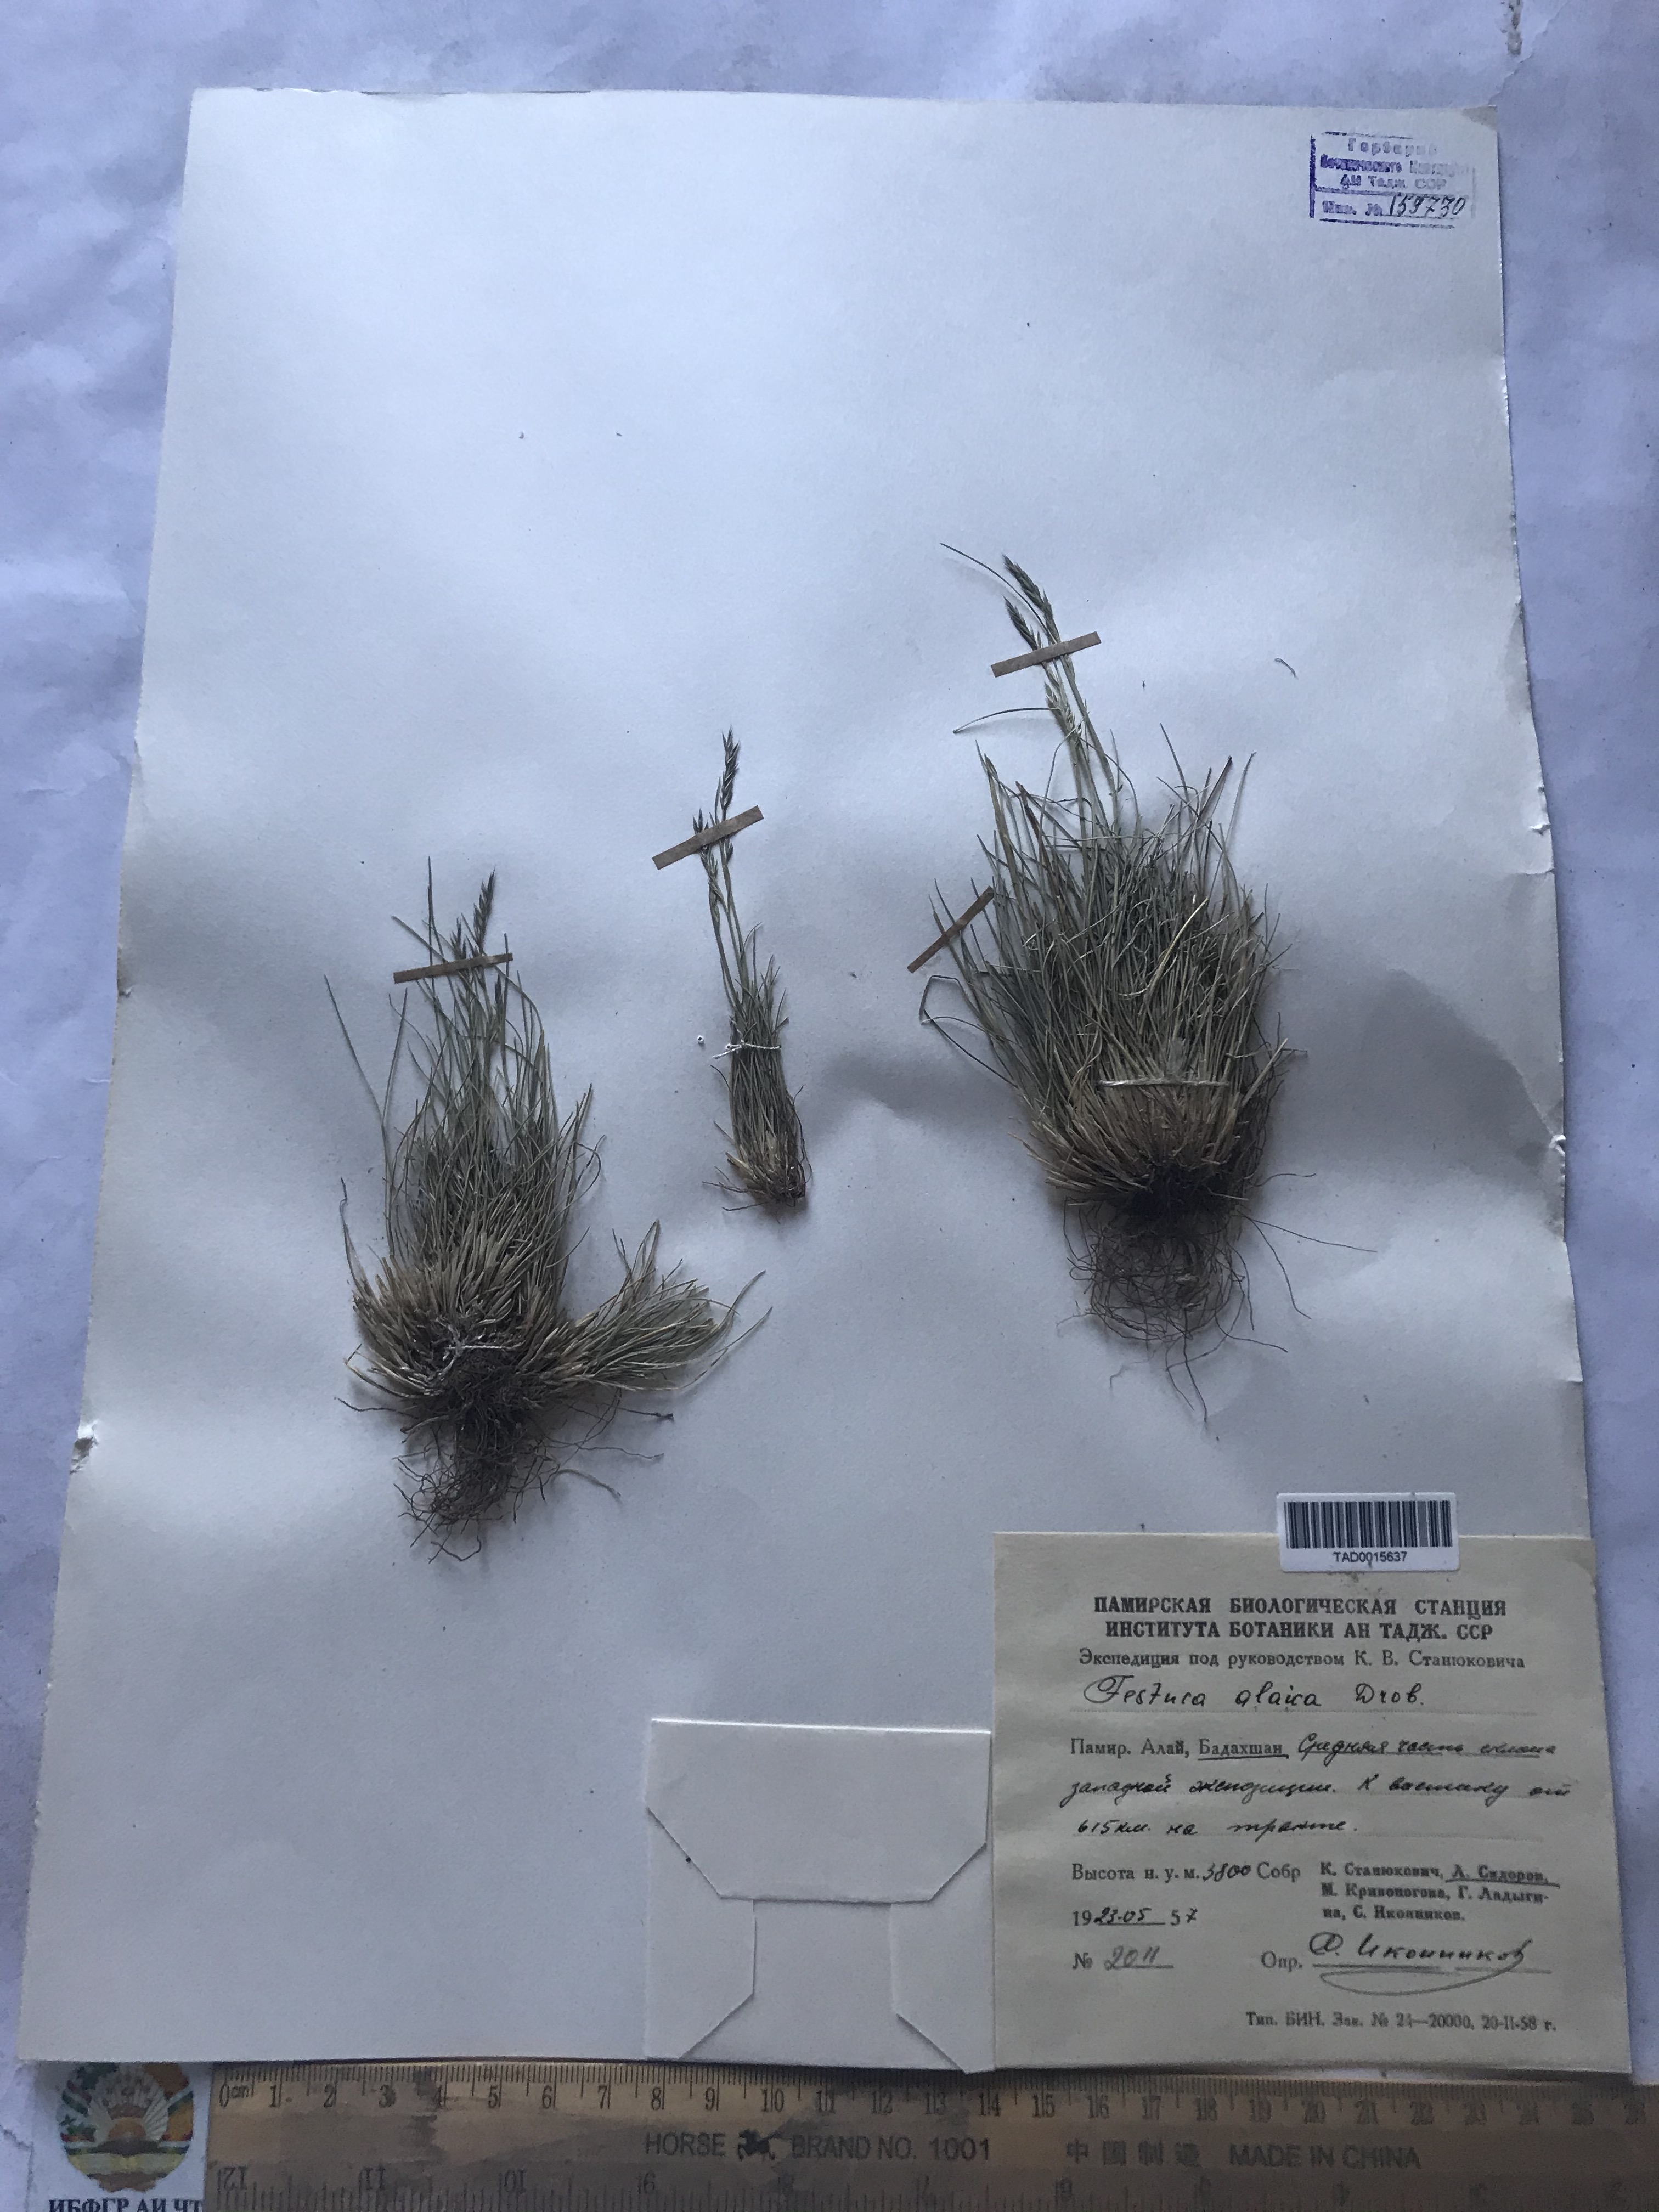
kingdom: Plantae
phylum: Tracheophyta
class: Liliopsida
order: Poales
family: Poaceae
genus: Festuca
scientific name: Festuca alaica
